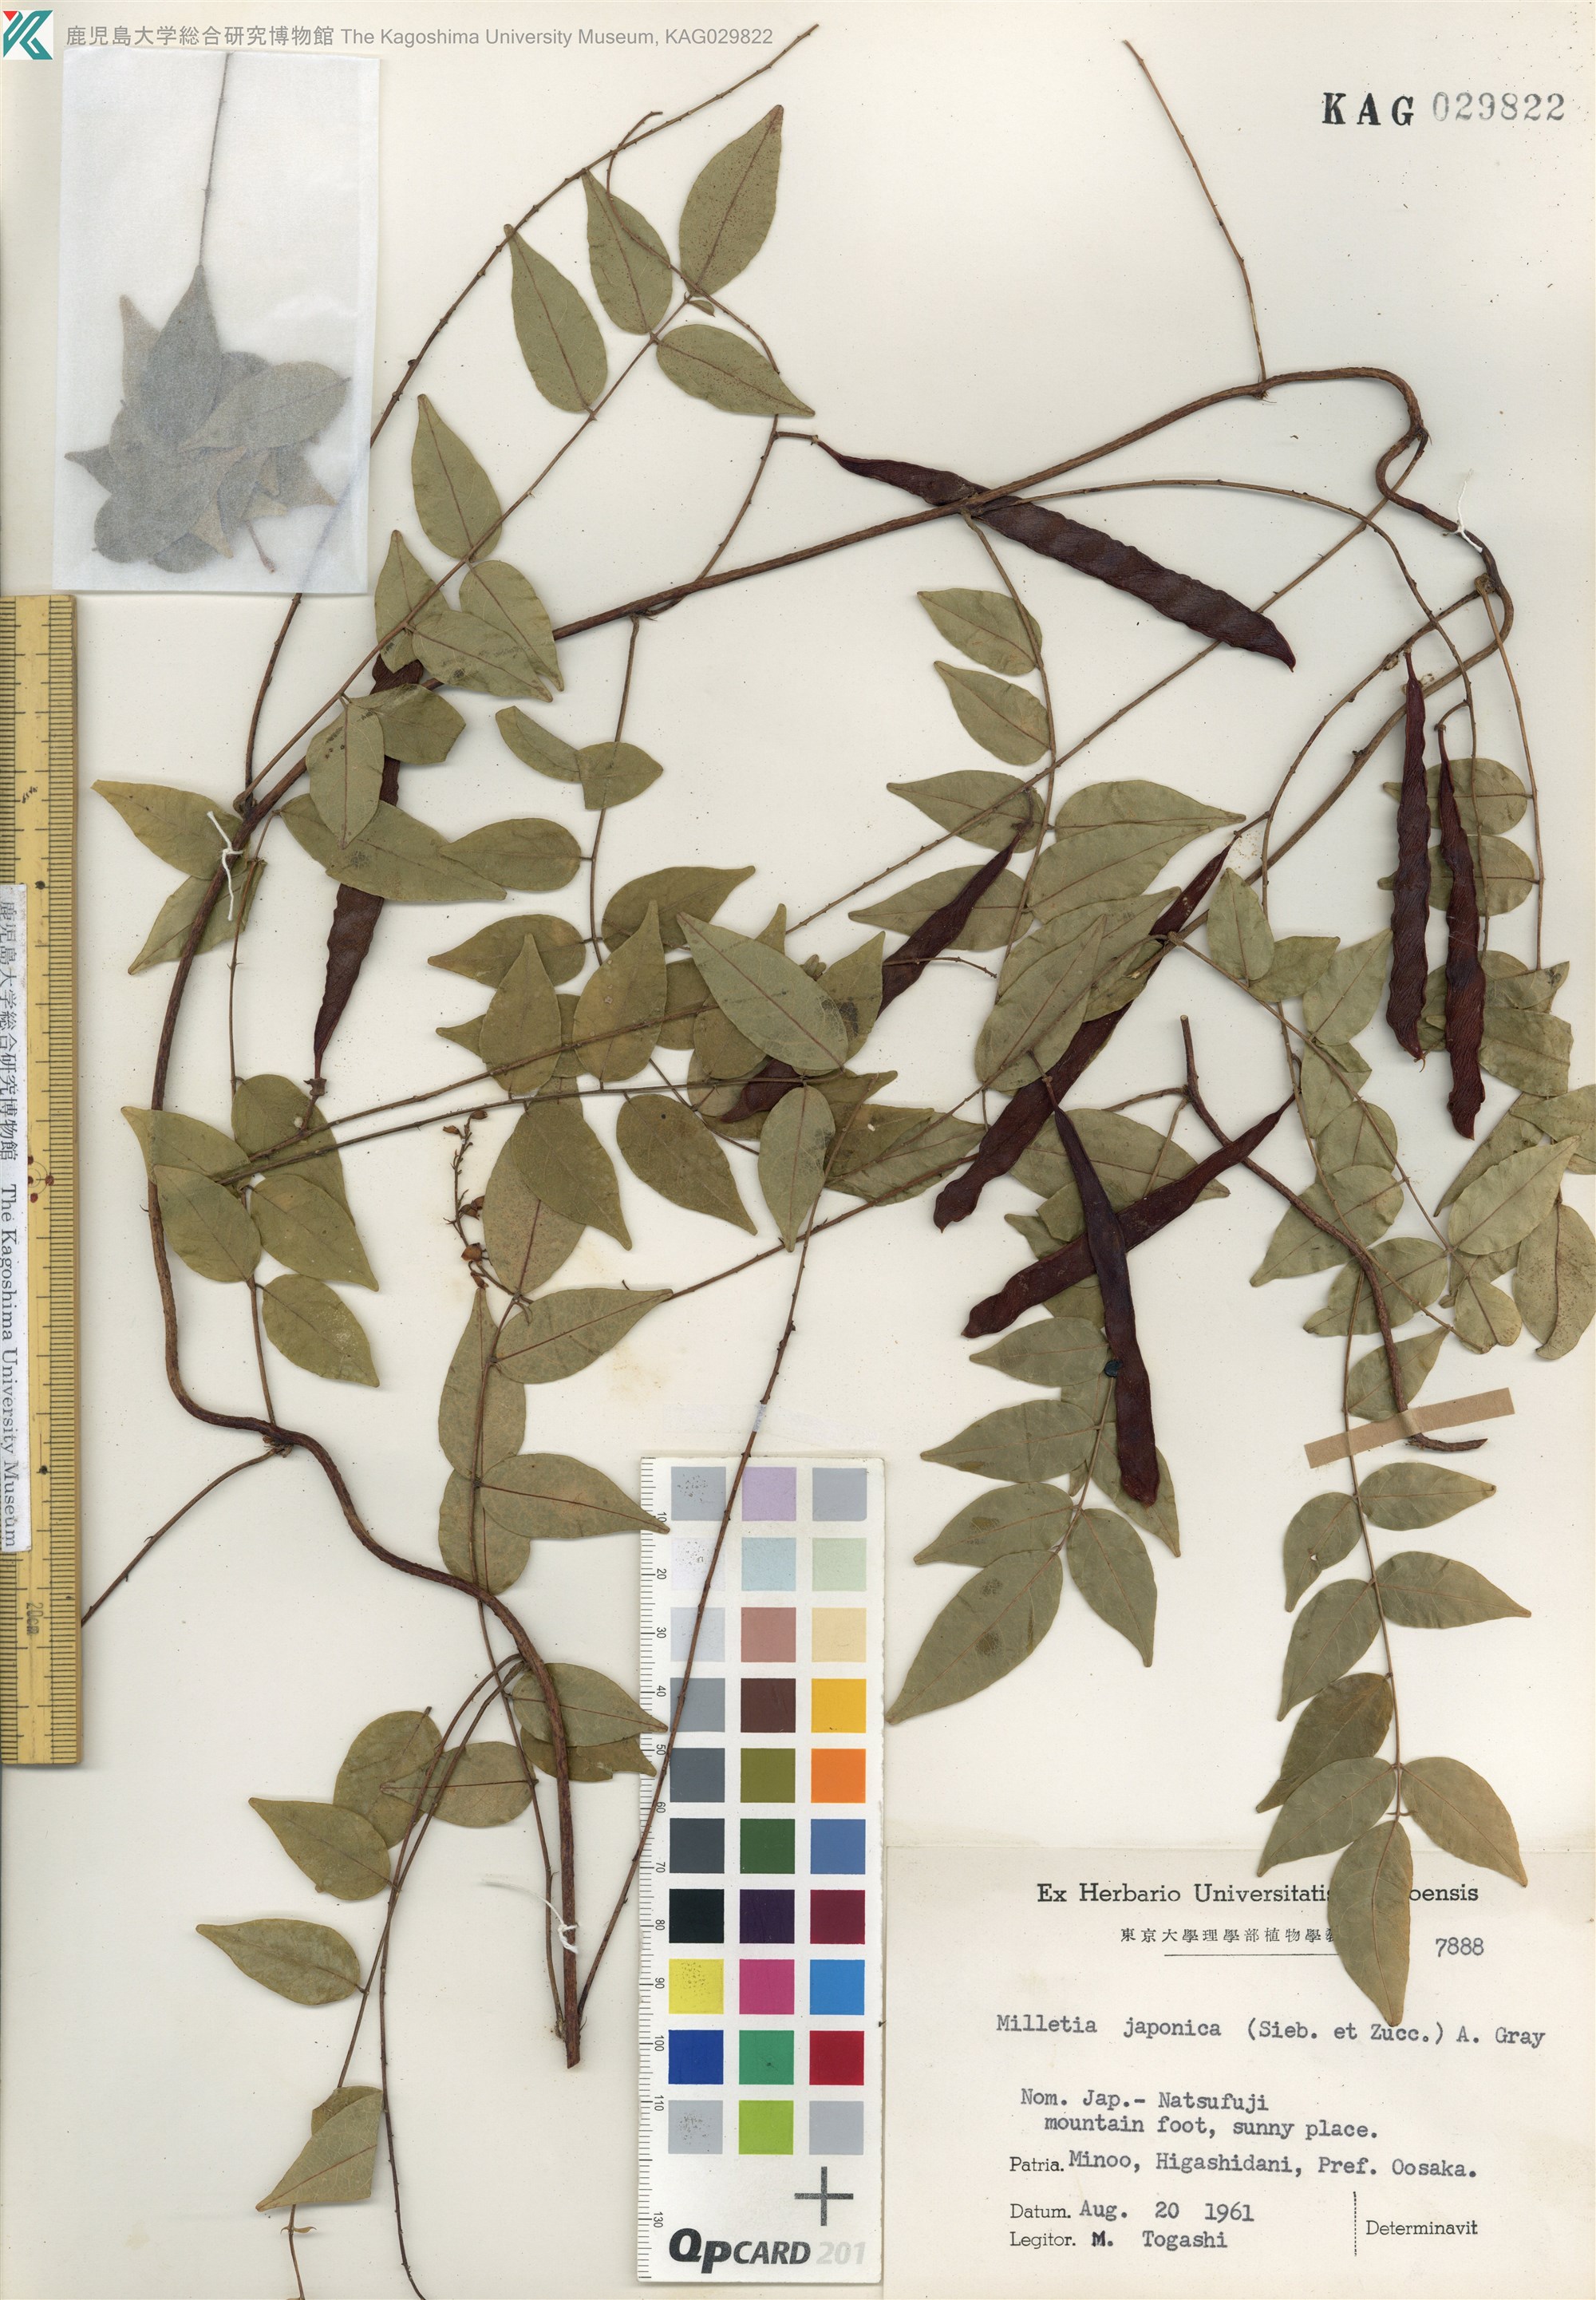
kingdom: Plantae
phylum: Tracheophyta
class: Magnoliopsida
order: Fabales
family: Fabaceae
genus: Wisteriopsis
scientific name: Wisteriopsis japonica
